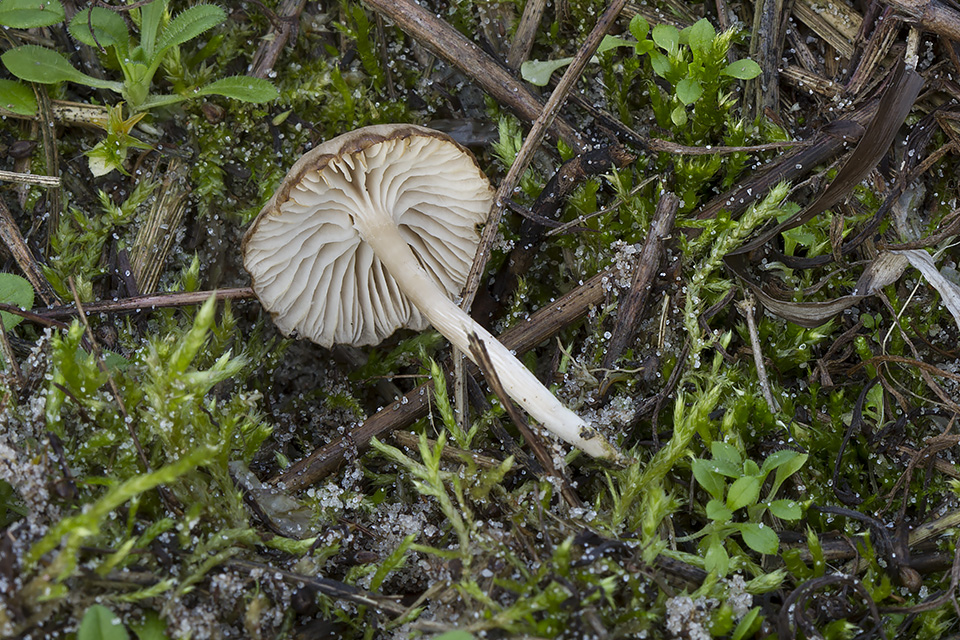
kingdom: Fungi
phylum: Basidiomycota
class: Agaricomycetes
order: Agaricales
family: Tricholomataceae
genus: Gamundia
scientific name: Gamundia xerophila
